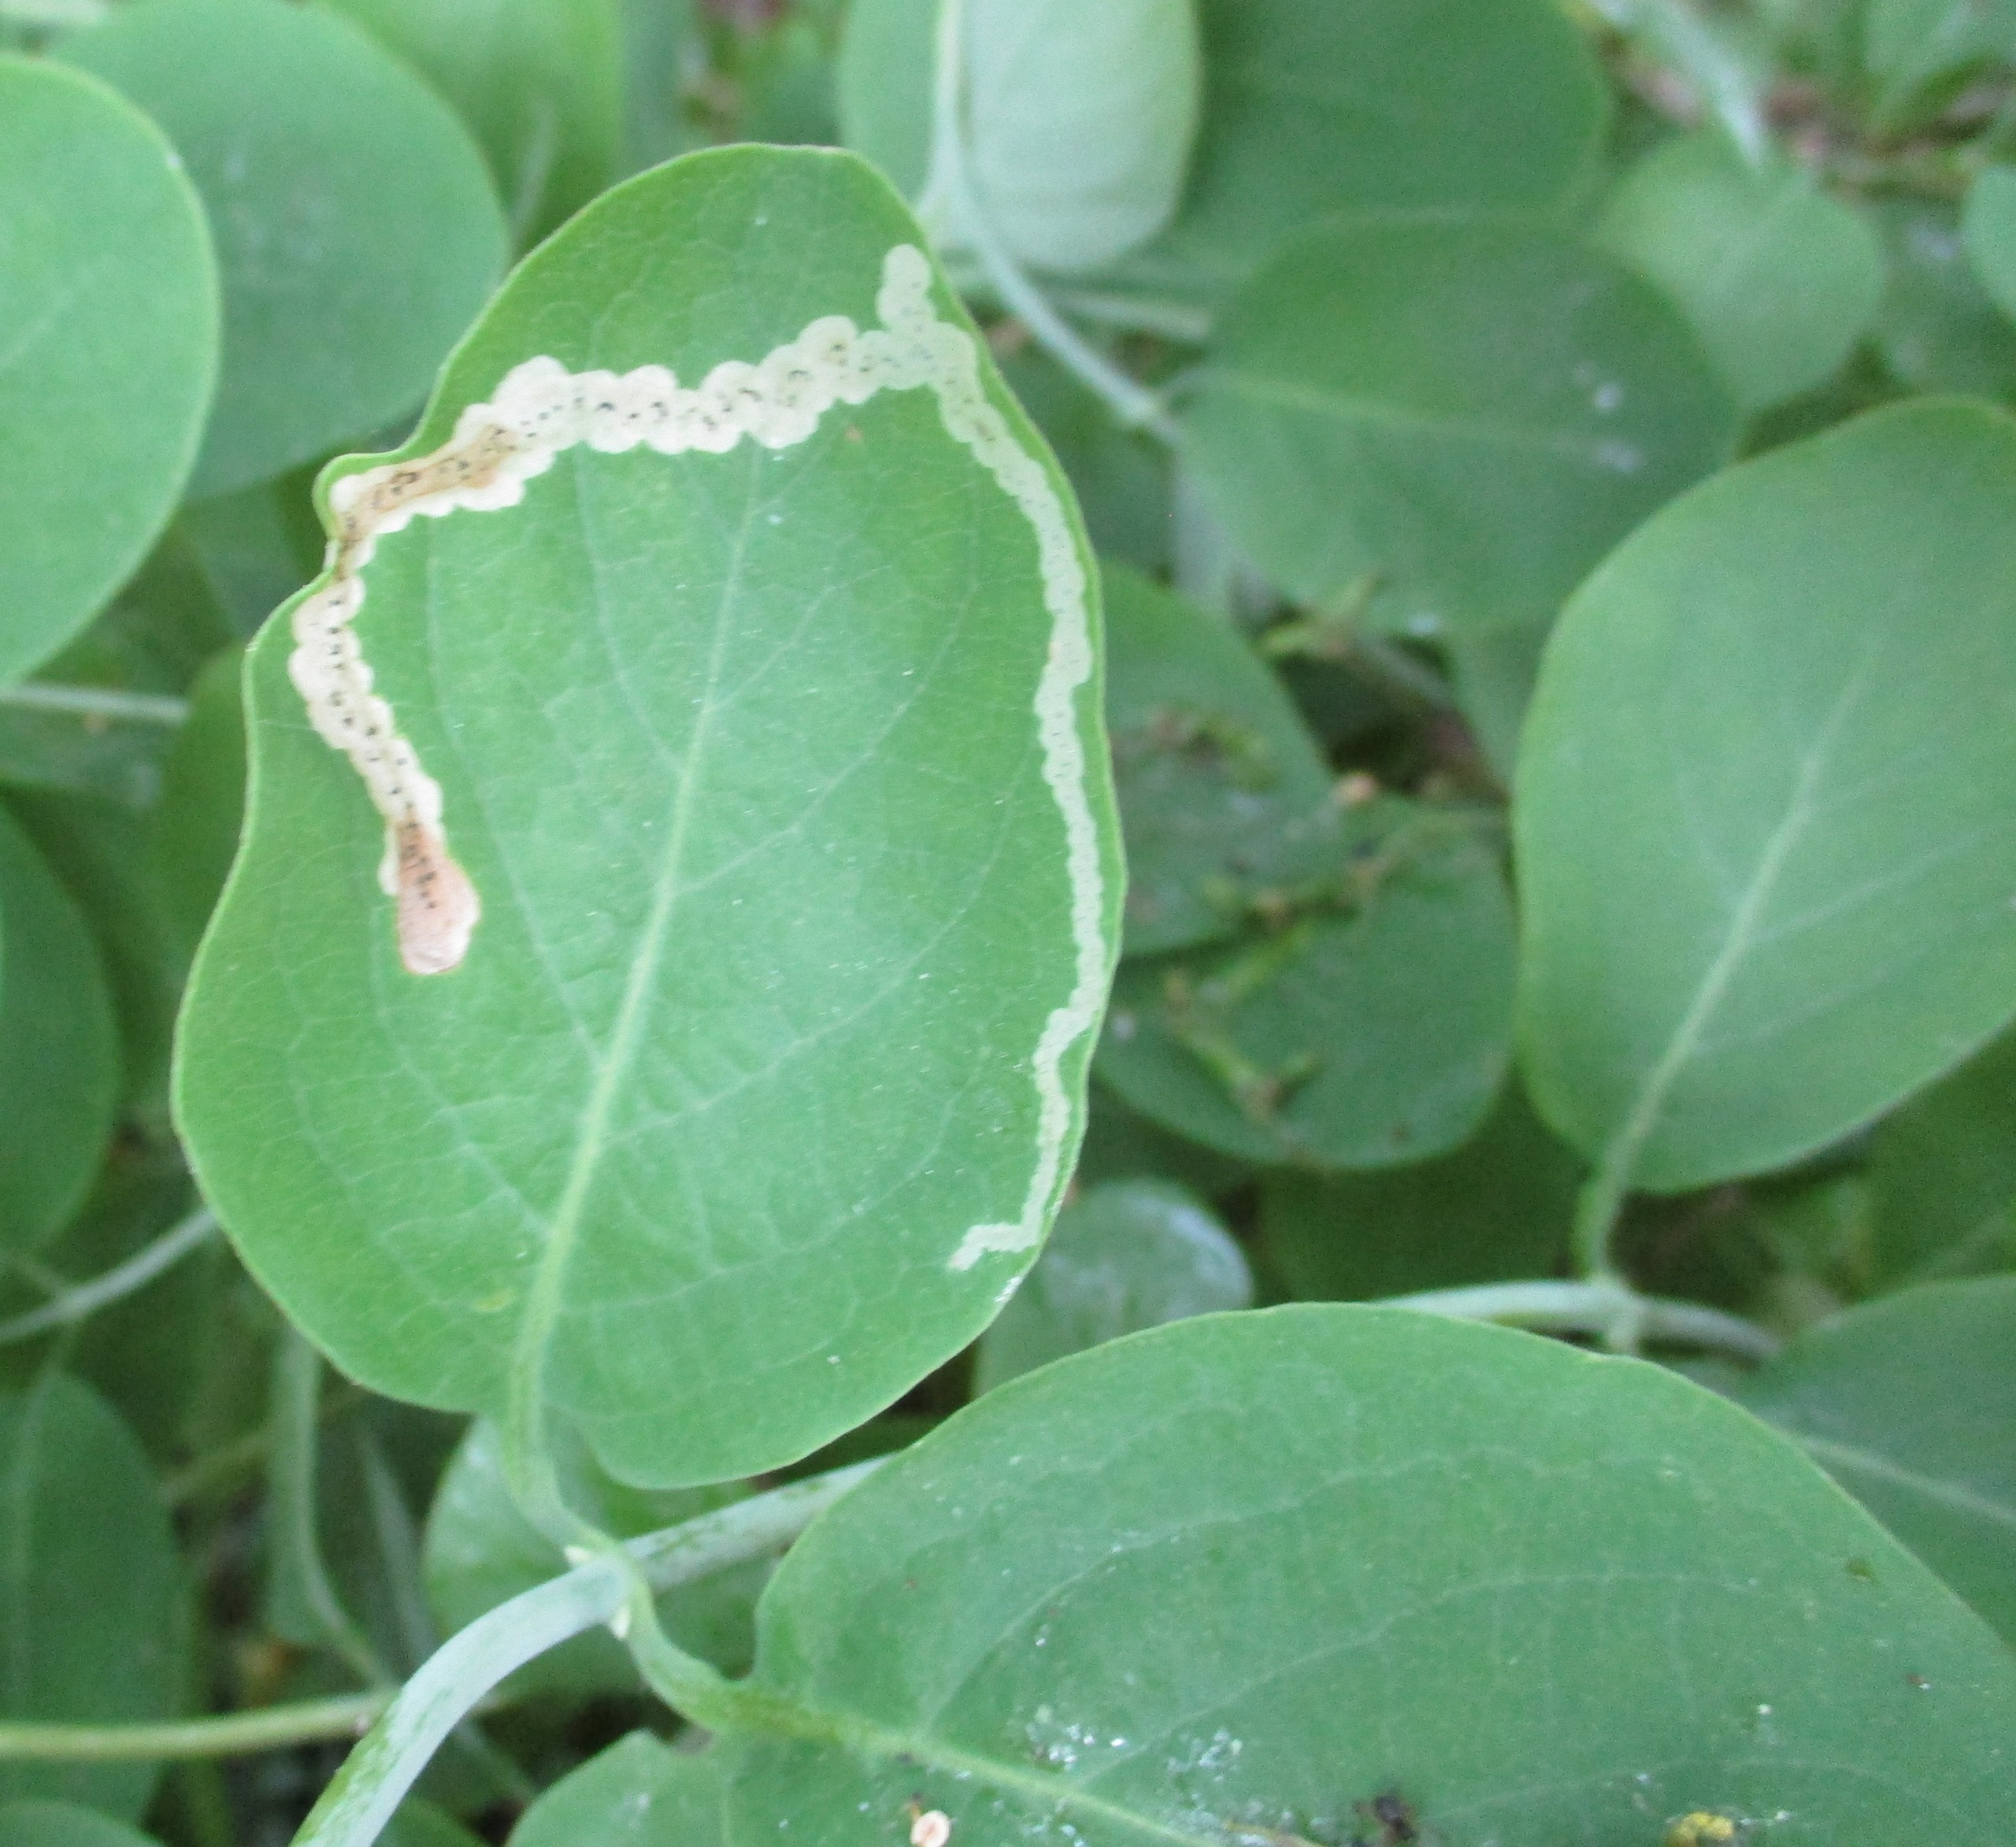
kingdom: Plantae
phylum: Tracheophyta
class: Magnoliopsida
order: Dipsacales
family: Caprifoliaceae
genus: Lonicera
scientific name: Lonicera periclymenum
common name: Almindelig gedeblad
